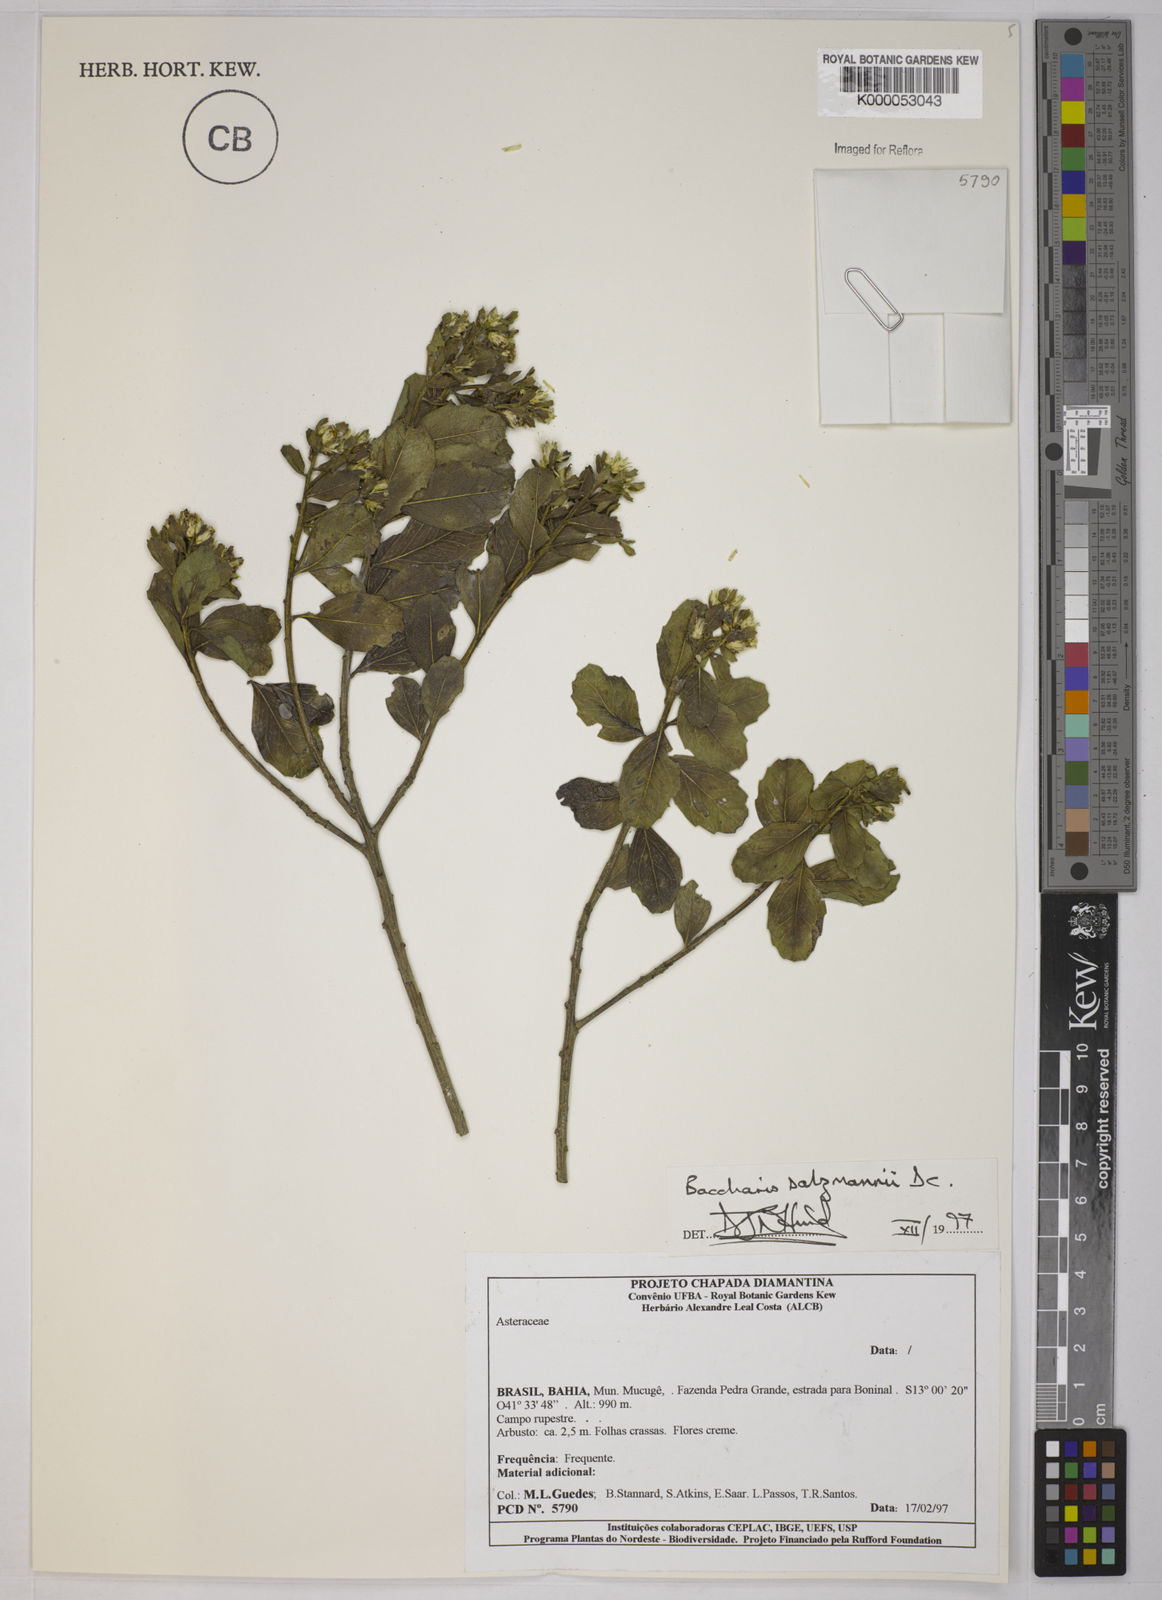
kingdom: Plantae
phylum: Tracheophyta
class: Magnoliopsida
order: Asterales
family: Asteraceae
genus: Baccharis
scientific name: Baccharis retusa
